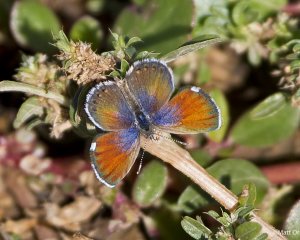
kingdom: Animalia
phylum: Arthropoda
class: Insecta
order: Lepidoptera
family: Lycaenidae
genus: Brephidium
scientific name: Brephidium exilis
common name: Western Pygmy-Blue
